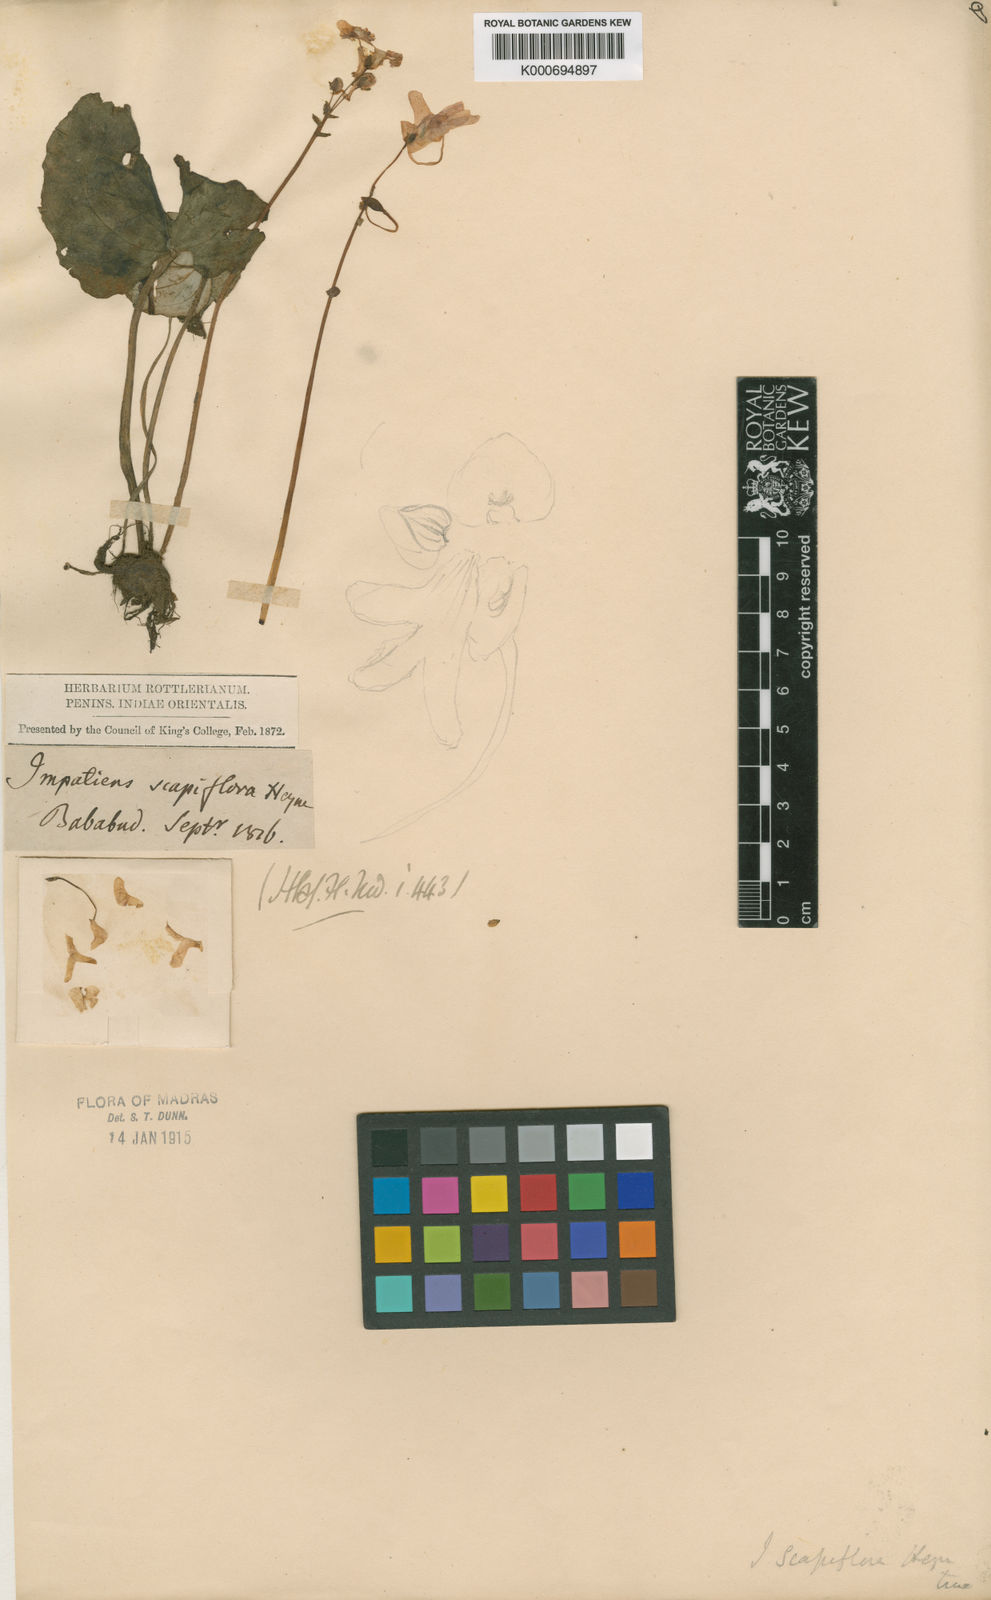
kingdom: Plantae
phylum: Tracheophyta
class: Magnoliopsida
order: Ericales
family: Balsaminaceae
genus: Impatiens
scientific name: Impatiens
